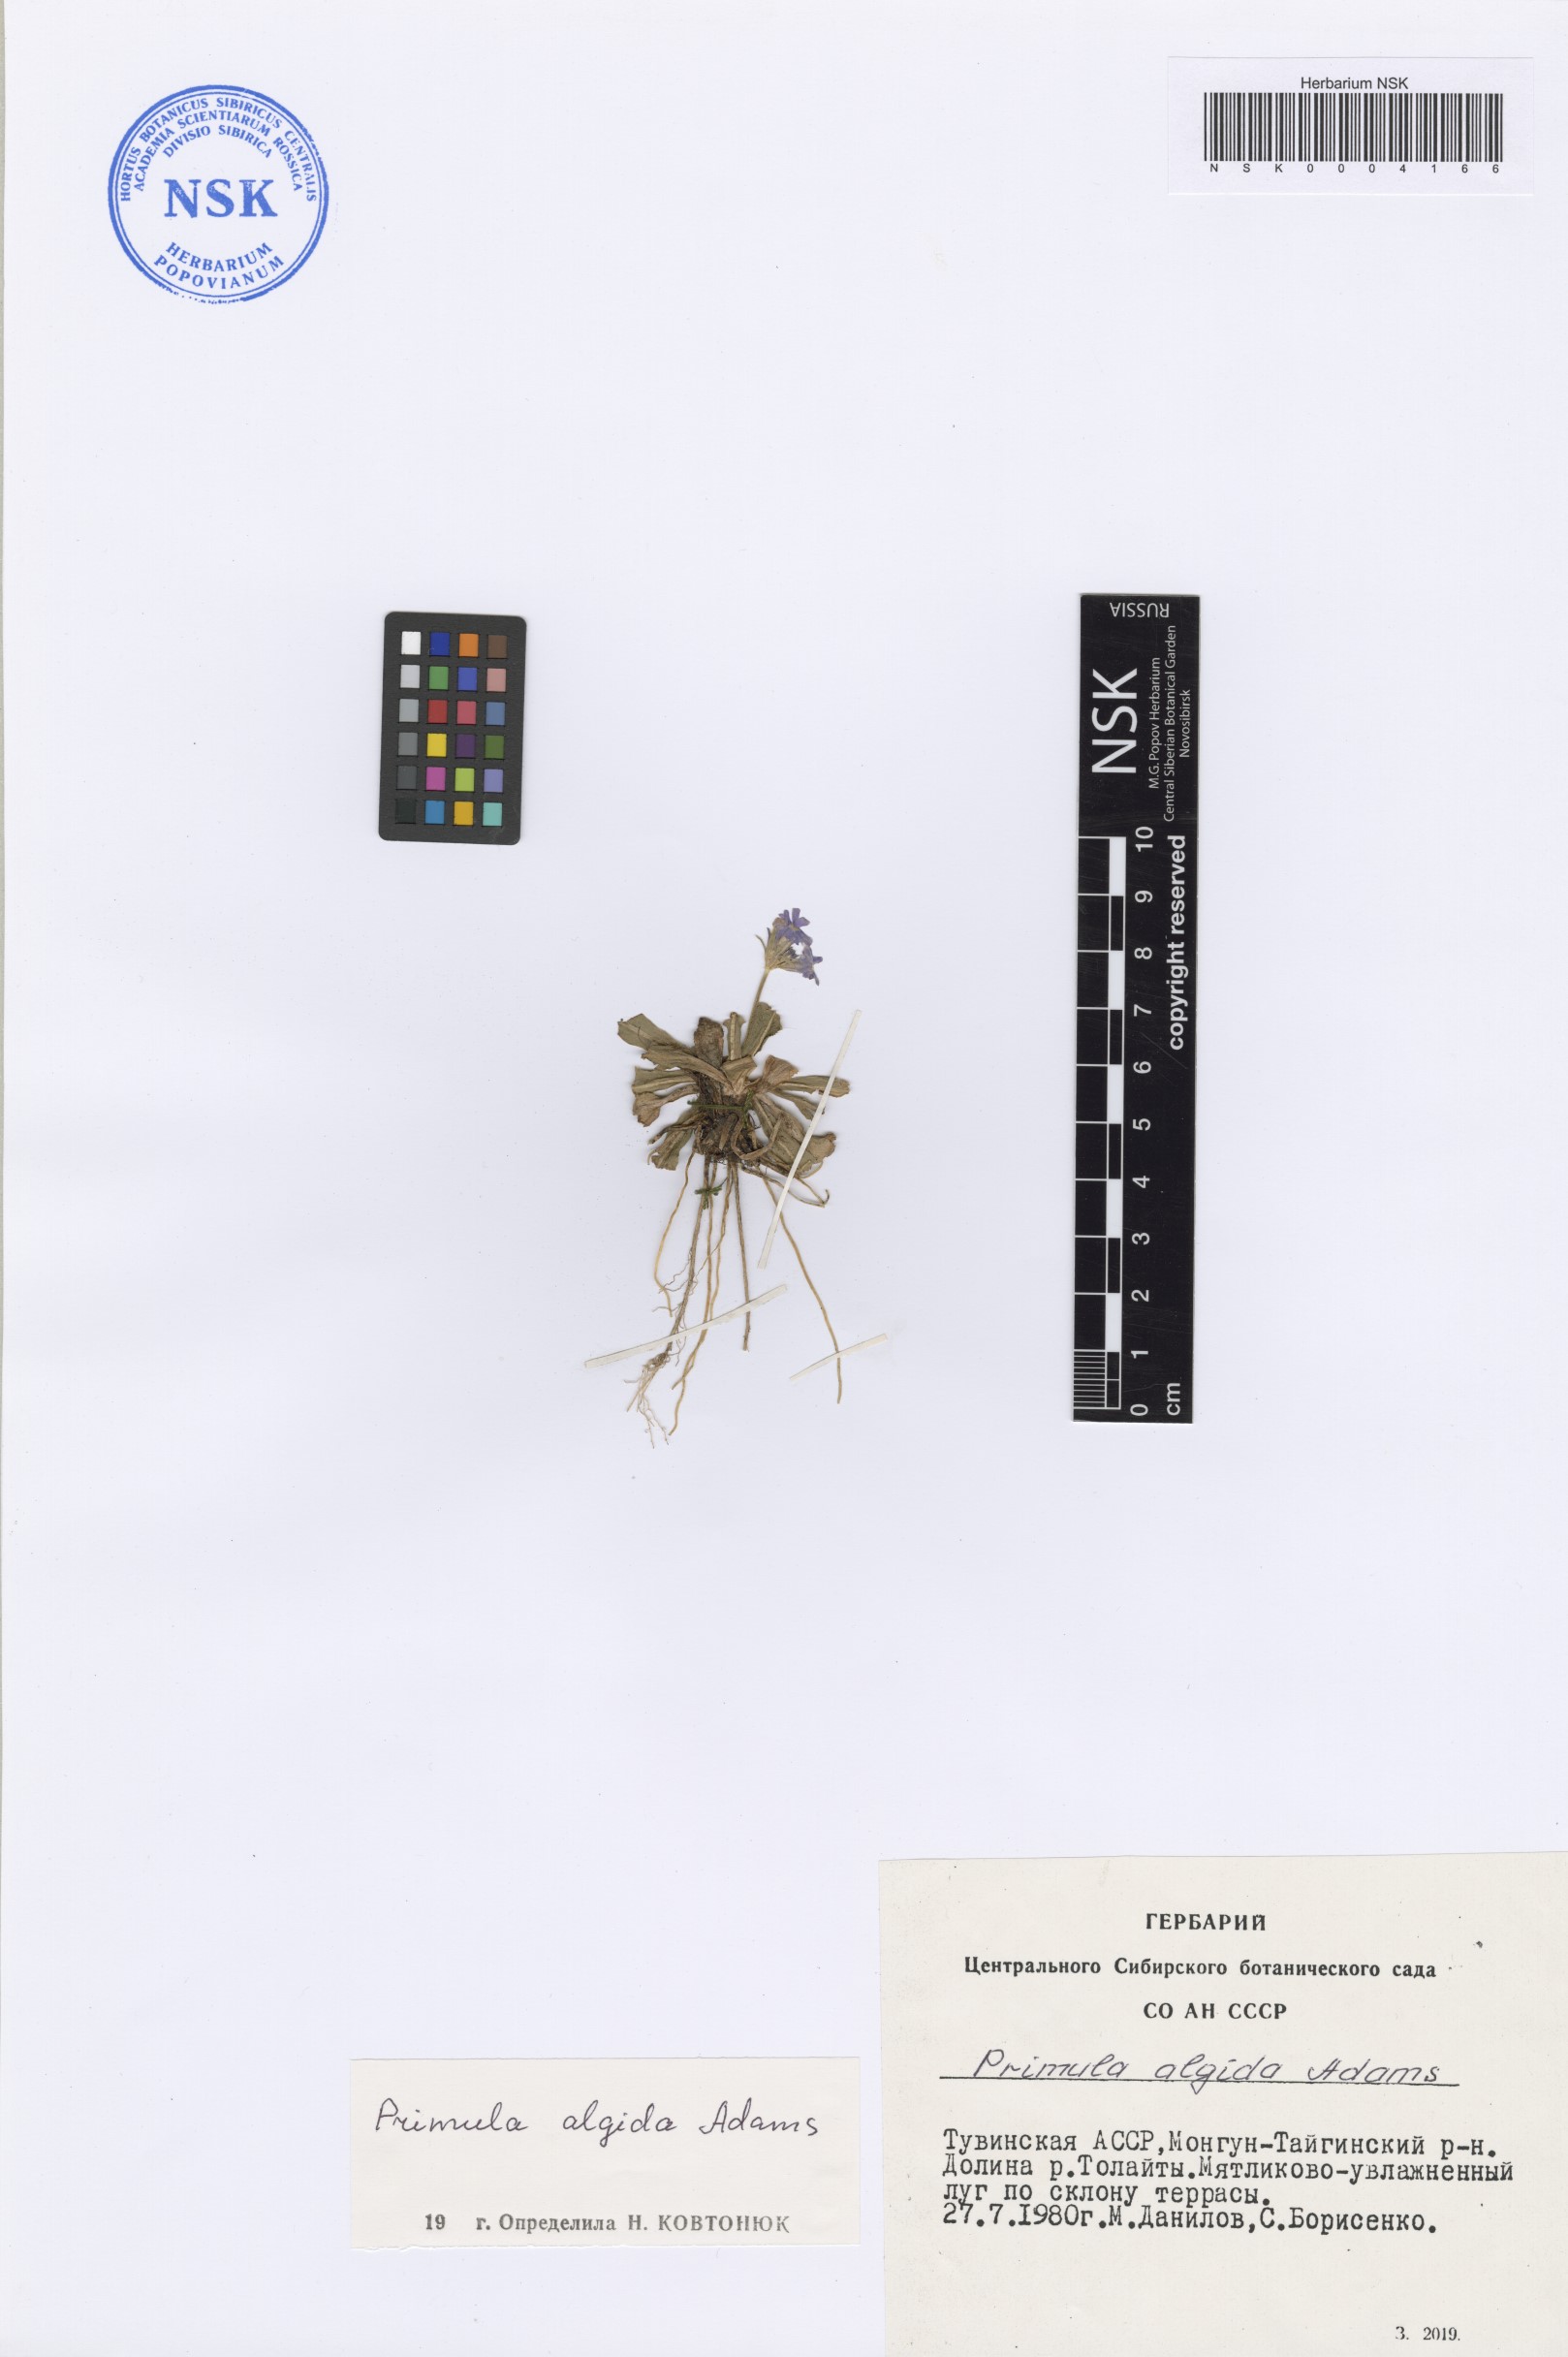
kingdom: Plantae
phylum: Tracheophyta
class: Magnoliopsida
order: Ericales
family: Primulaceae
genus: Primula
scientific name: Primula algida
